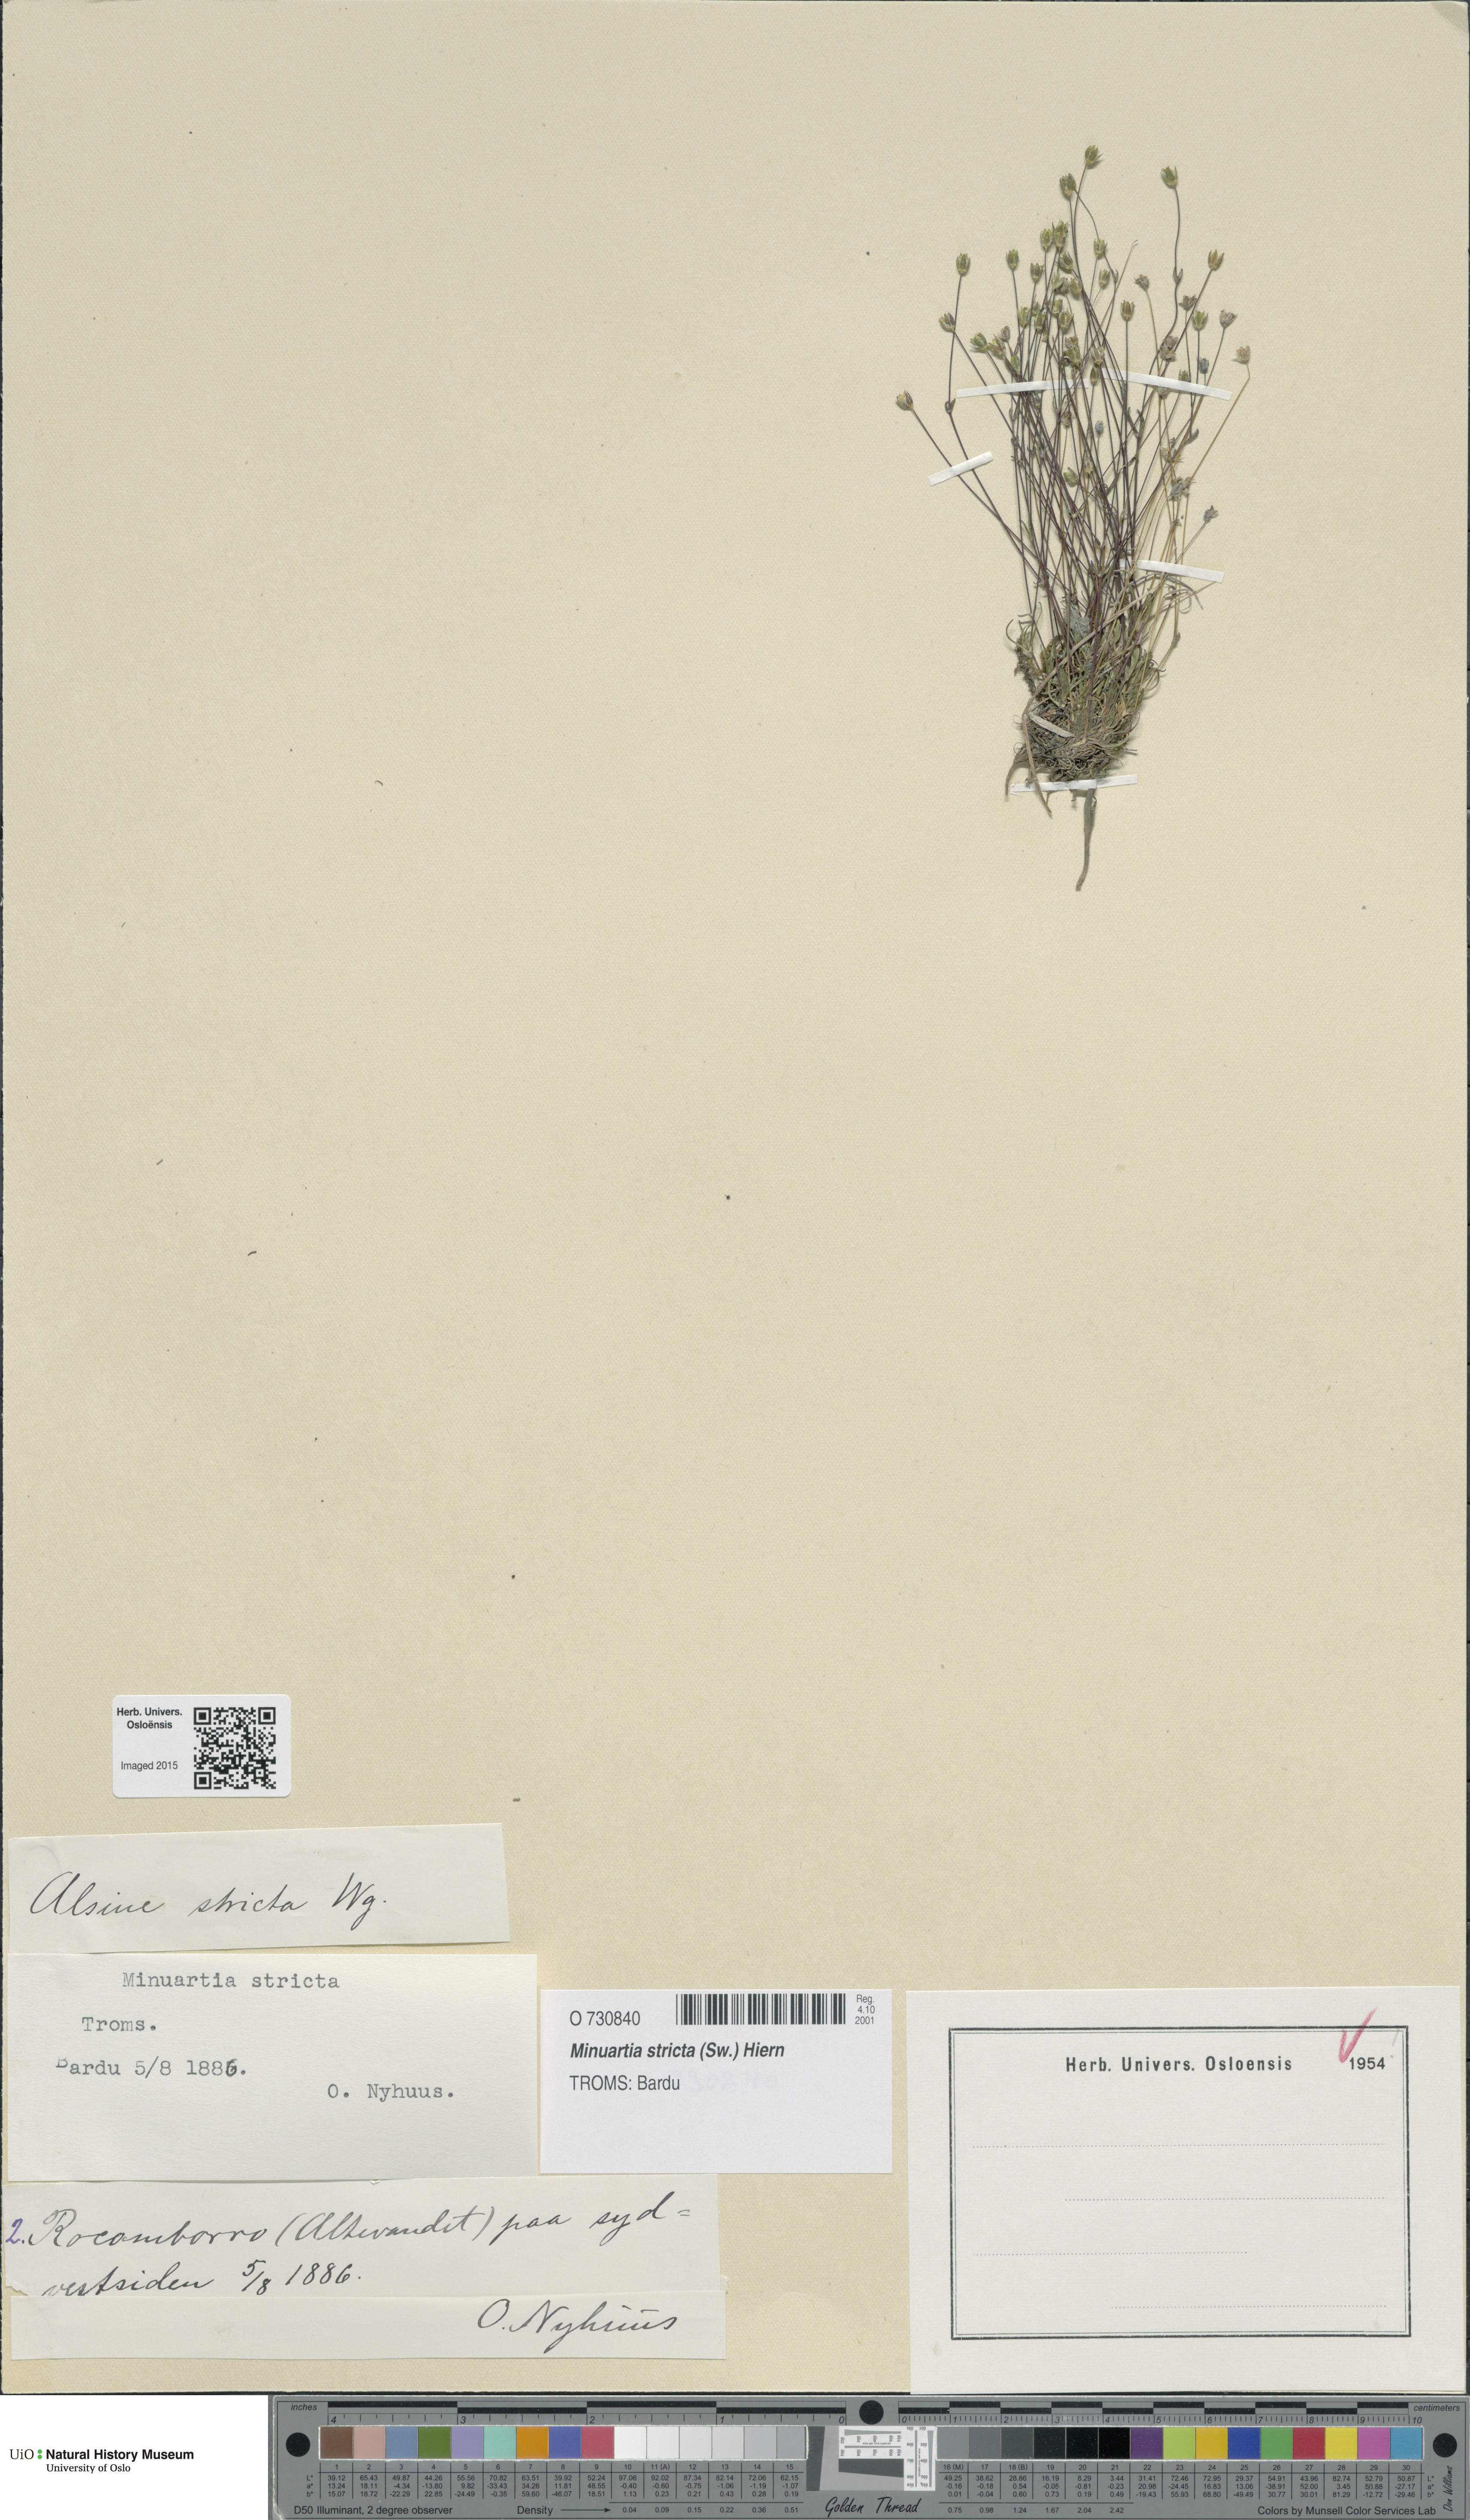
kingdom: Plantae
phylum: Tracheophyta
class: Magnoliopsida
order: Caryophyllales
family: Caryophyllaceae
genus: Sabulina
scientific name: Sabulina stricta
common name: Bog sandwort
